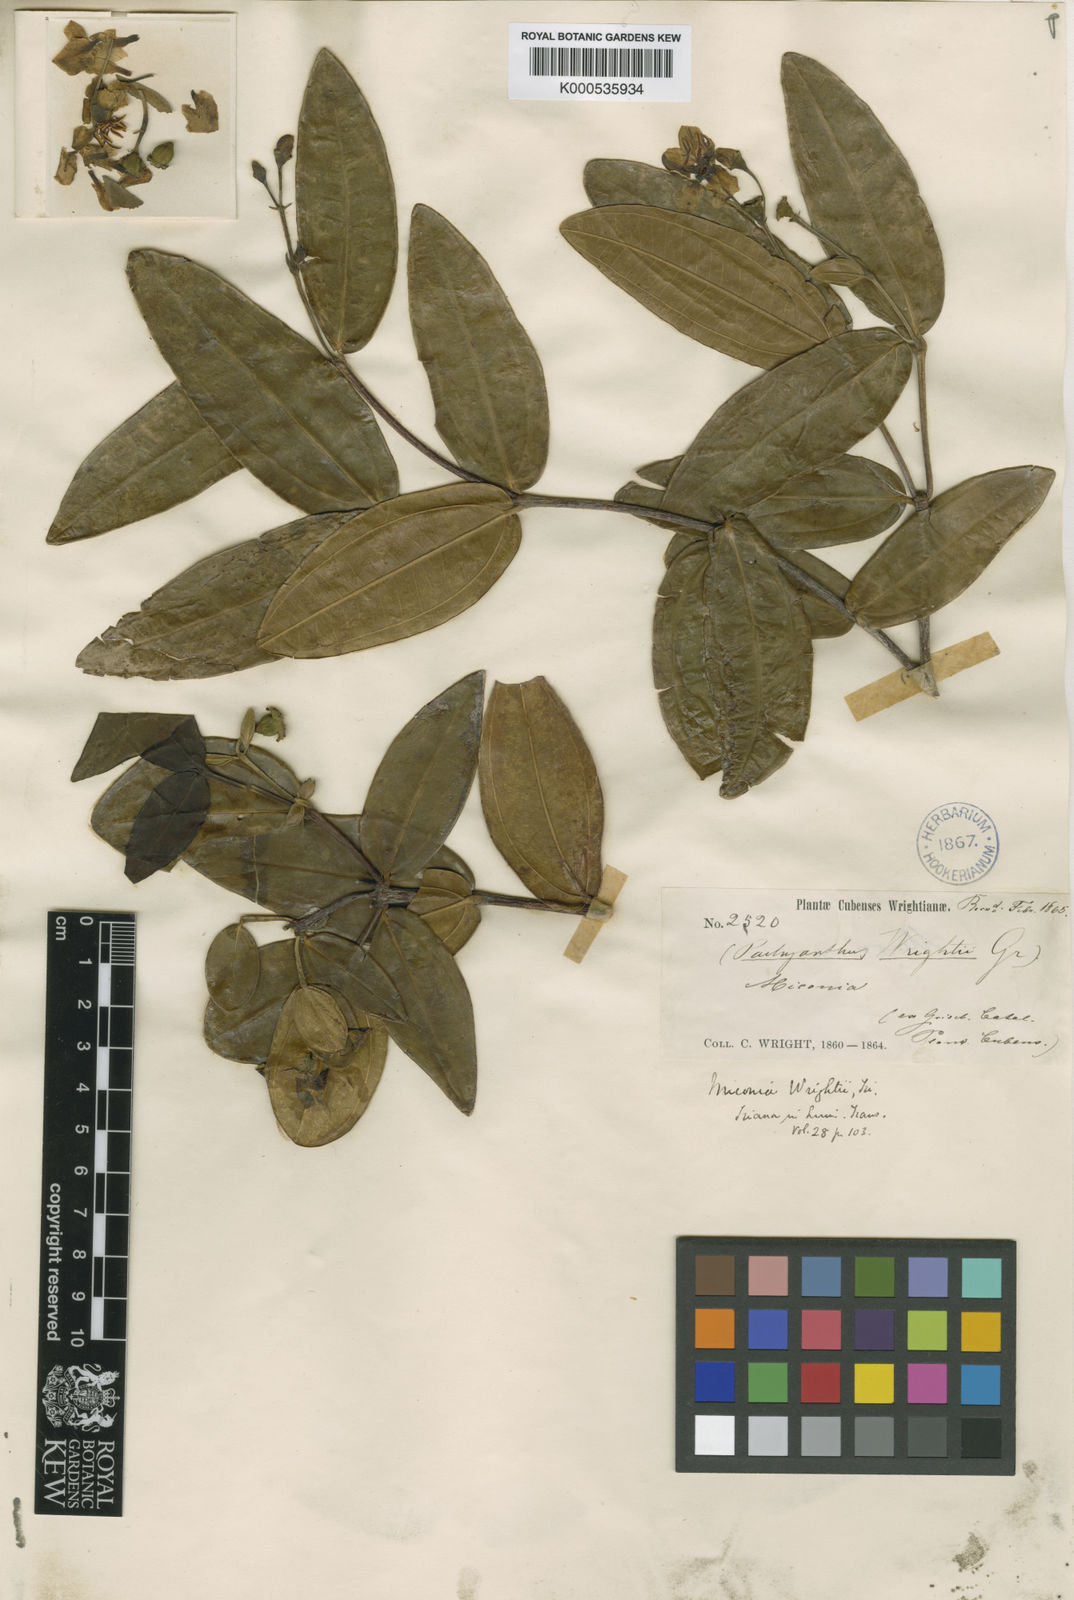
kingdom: Plantae
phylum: Tracheophyta
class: Magnoliopsida
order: Myrtales
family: Melastomataceae
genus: Miconia
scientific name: Miconia wrightii
